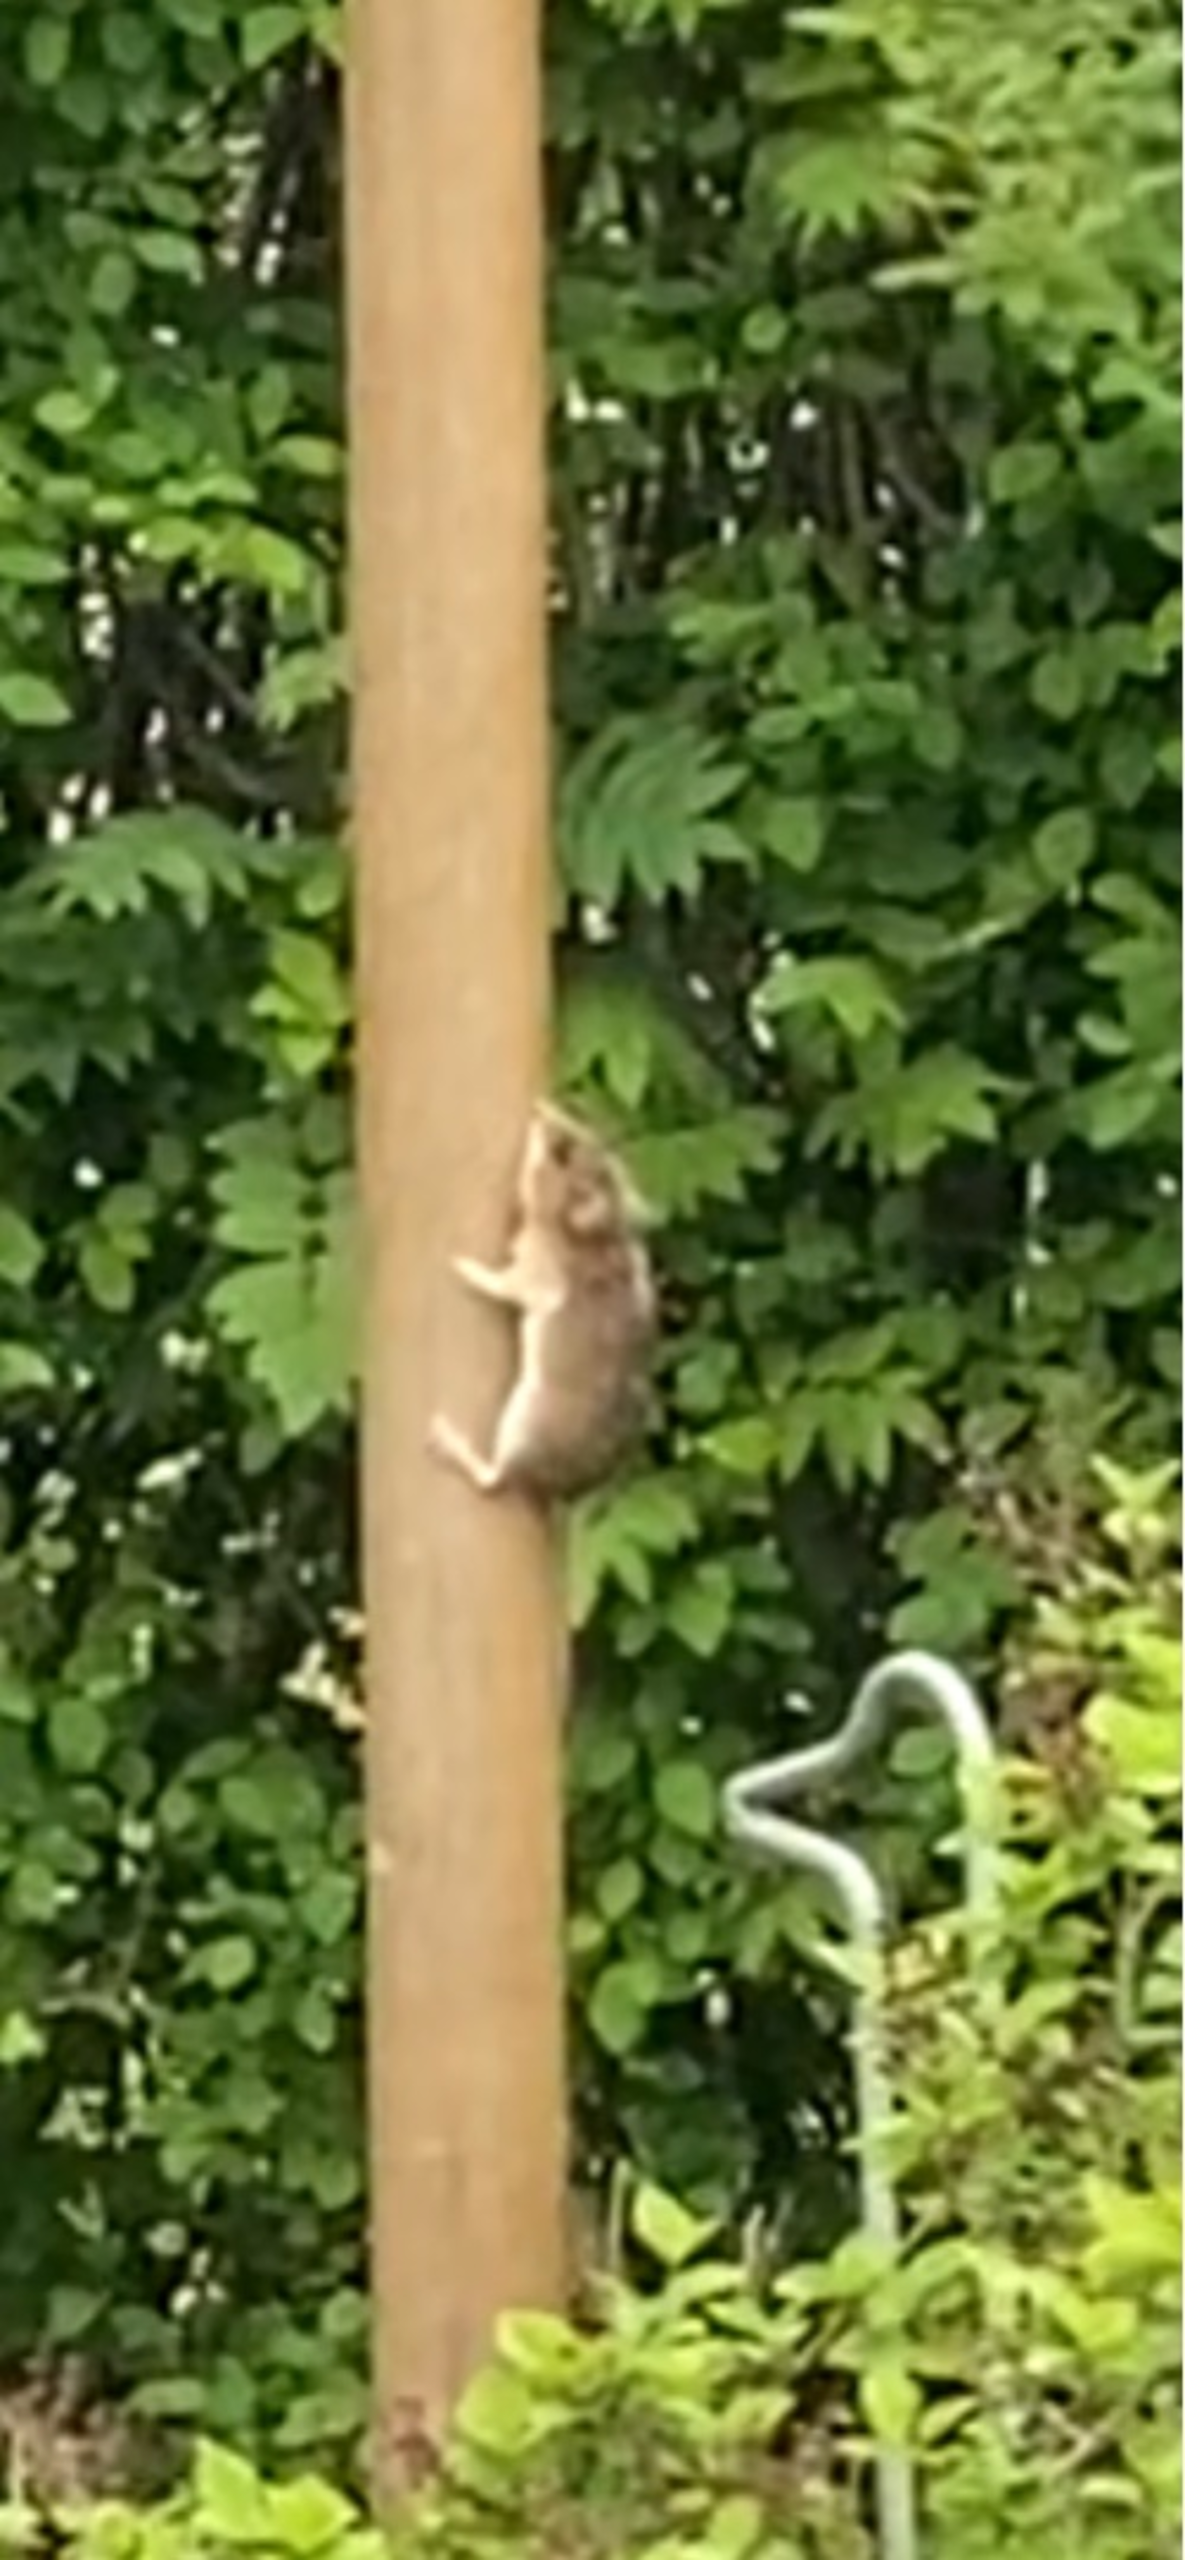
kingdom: Animalia
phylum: Chordata
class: Mammalia
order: Rodentia
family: Muridae
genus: Apodemus
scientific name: Apodemus flavicollis
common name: Halsbåndmus
